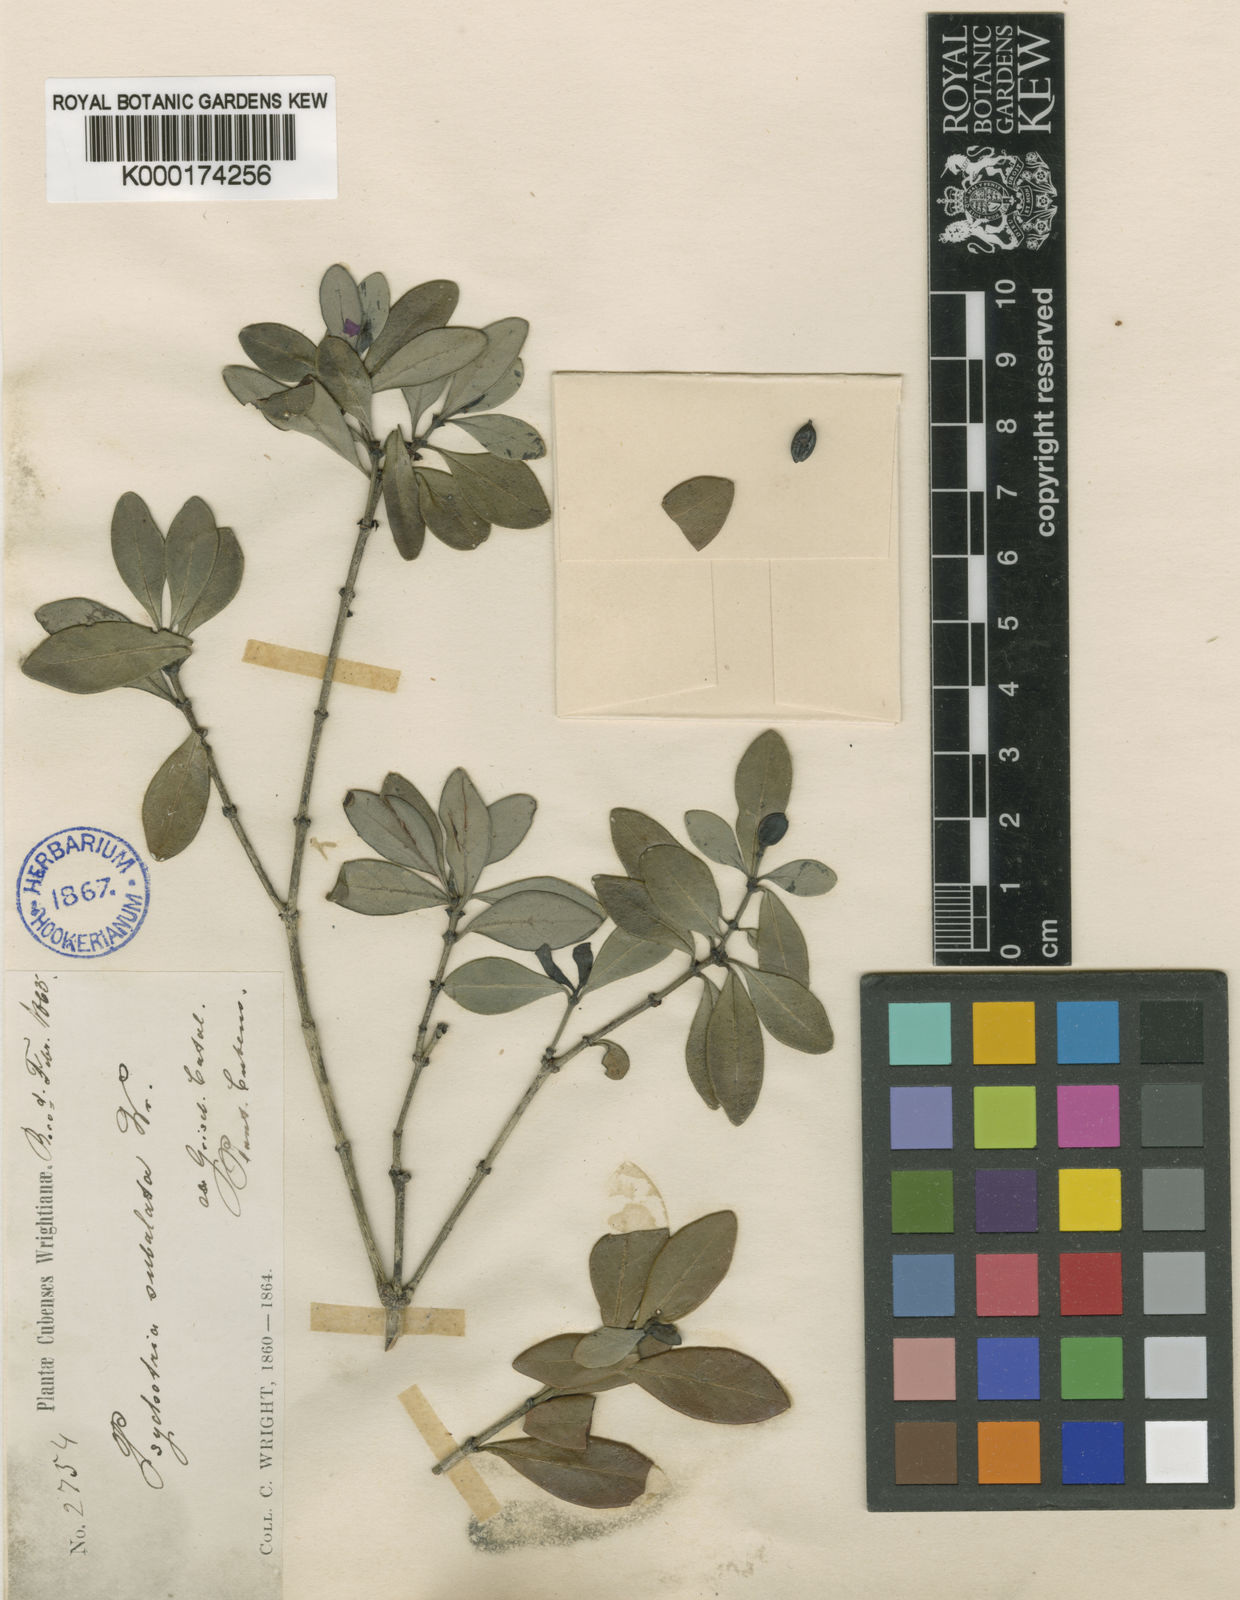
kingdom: Plantae
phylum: Tracheophyta
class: Magnoliopsida
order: Gentianales
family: Rubiaceae
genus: Palicourea
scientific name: Palicourea orientensis
